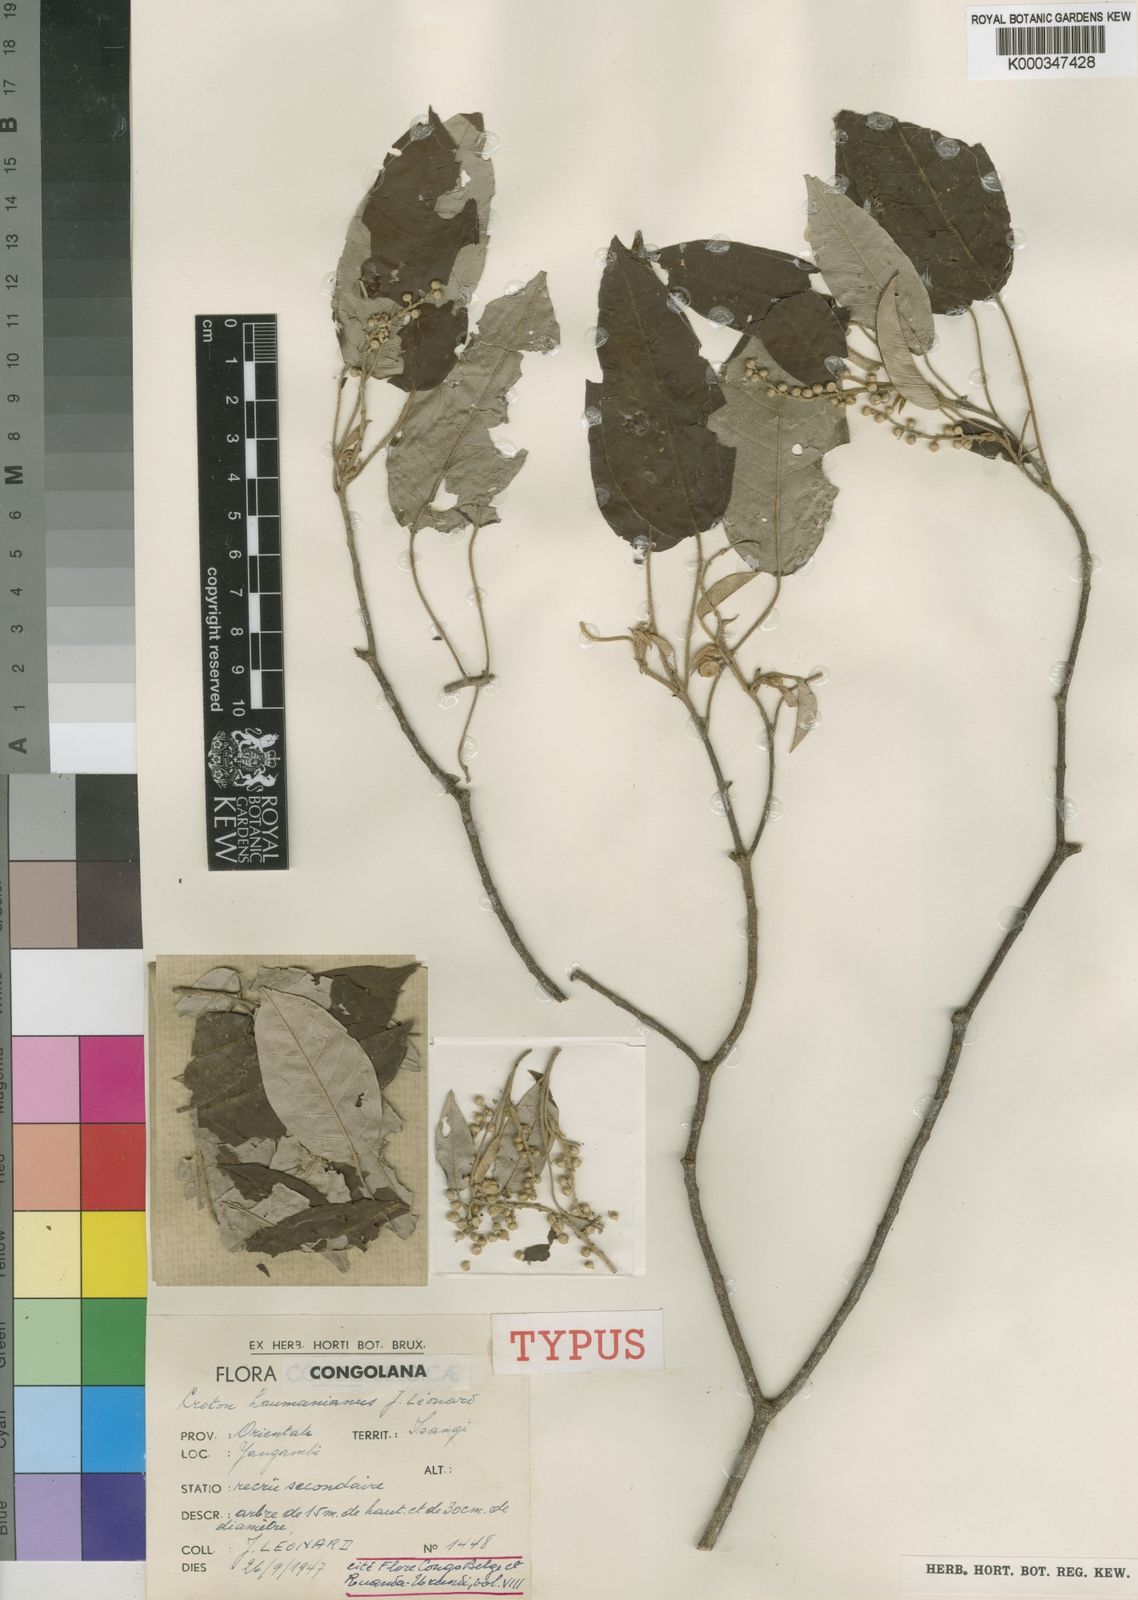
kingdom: Plantae
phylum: Tracheophyta
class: Magnoliopsida
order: Malpighiales
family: Euphorbiaceae
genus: Croton
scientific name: Croton
